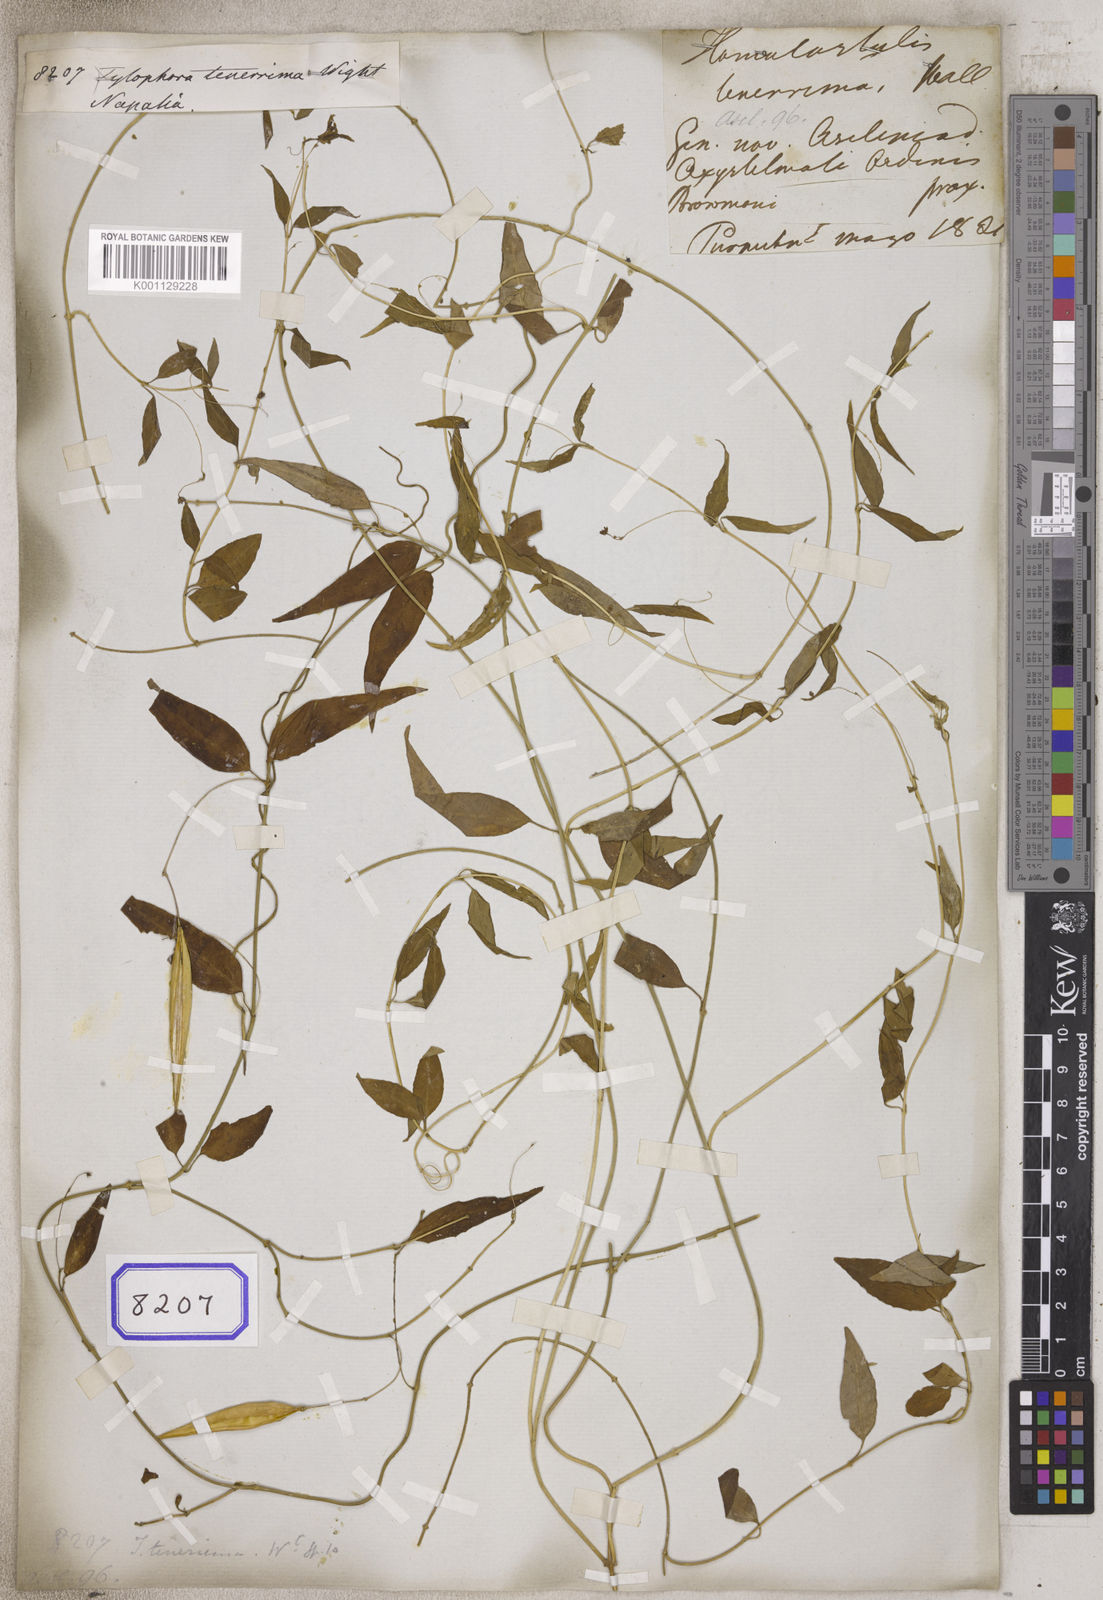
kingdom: Plantae
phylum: Tracheophyta
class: Magnoliopsida
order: Gentianales
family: Apocynaceae
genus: Vincetoxicum
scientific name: Vincetoxicum tenerrimum
